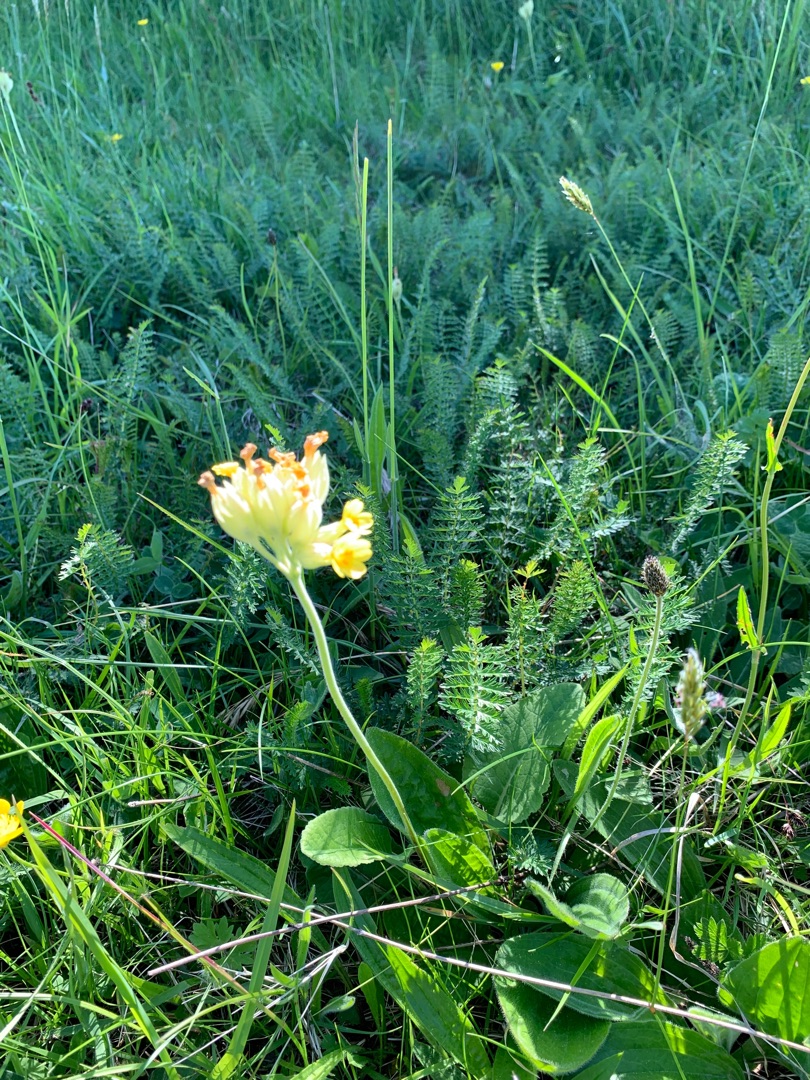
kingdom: Plantae
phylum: Tracheophyta
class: Magnoliopsida
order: Ericales
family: Primulaceae
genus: Primula
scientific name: Primula veris
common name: Hulkravet kodriver
